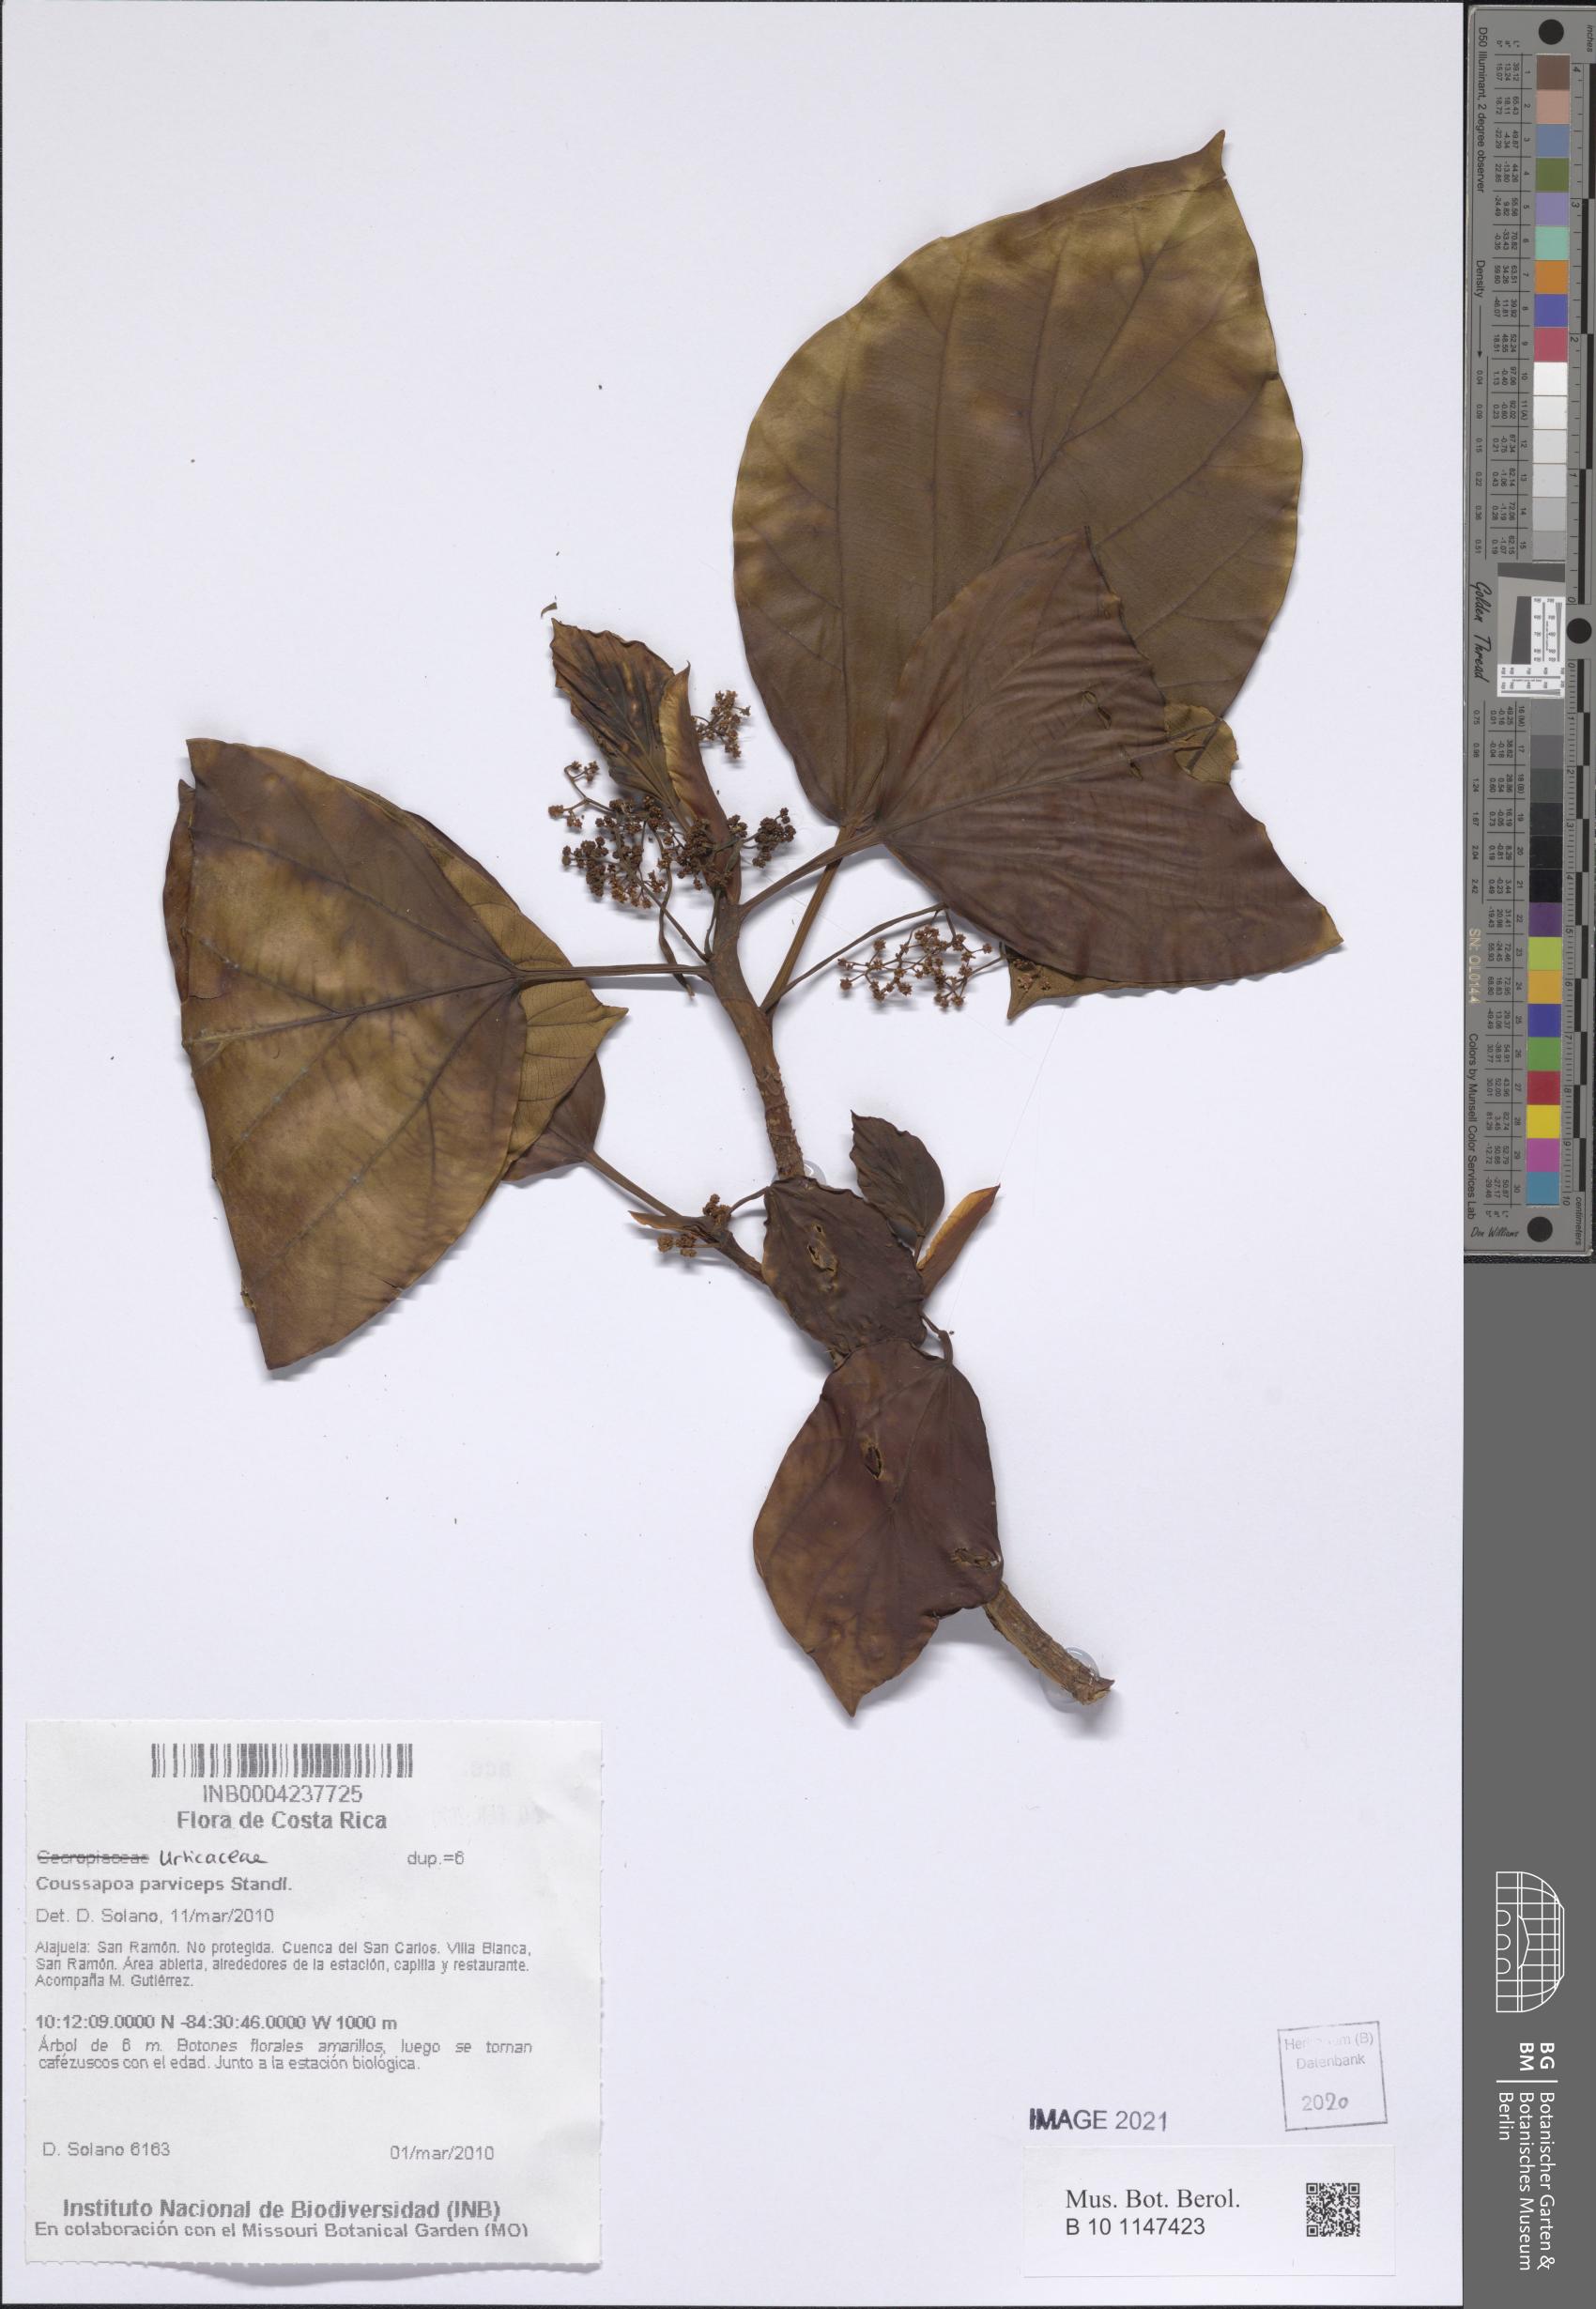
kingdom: Plantae
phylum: Tracheophyta
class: Magnoliopsida
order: Rosales
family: Urticaceae
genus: Coussapoa
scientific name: Coussapoa parviceps
